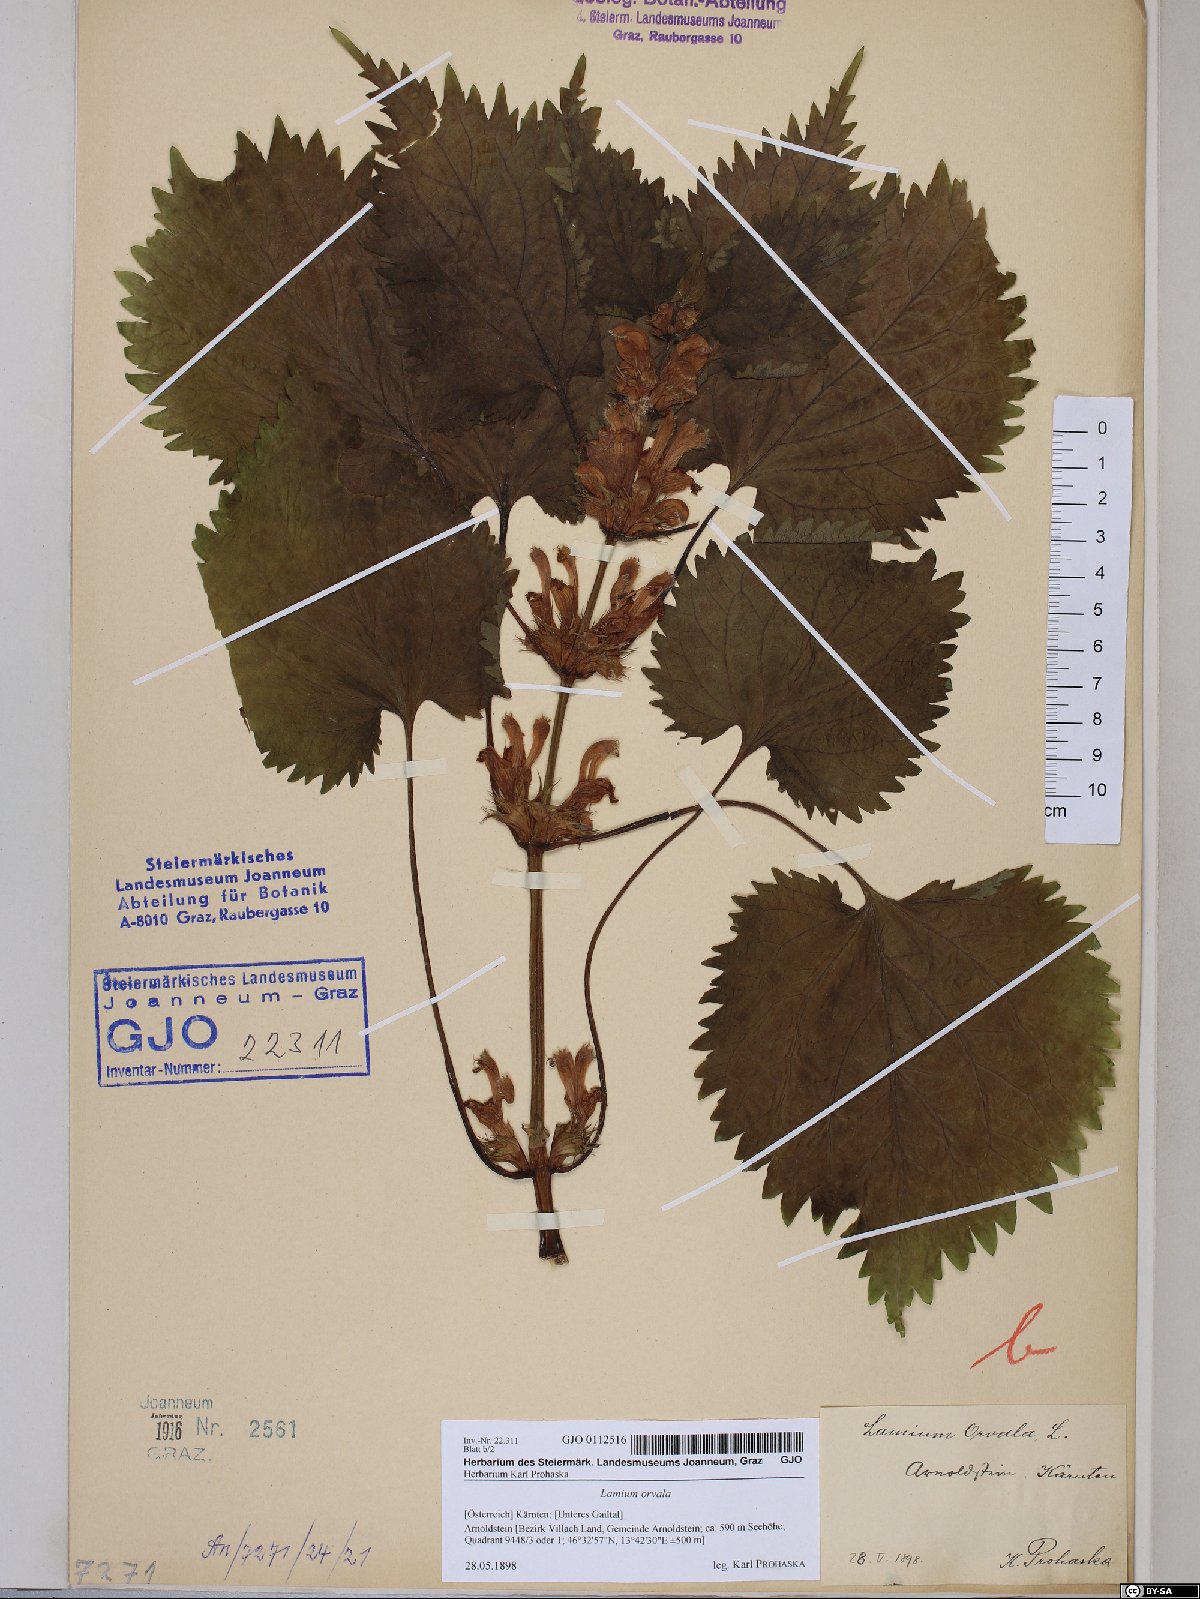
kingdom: Plantae
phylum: Tracheophyta
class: Magnoliopsida
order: Lamiales
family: Lamiaceae
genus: Lamium
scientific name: Lamium orvala
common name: Balm-leaved archangel
